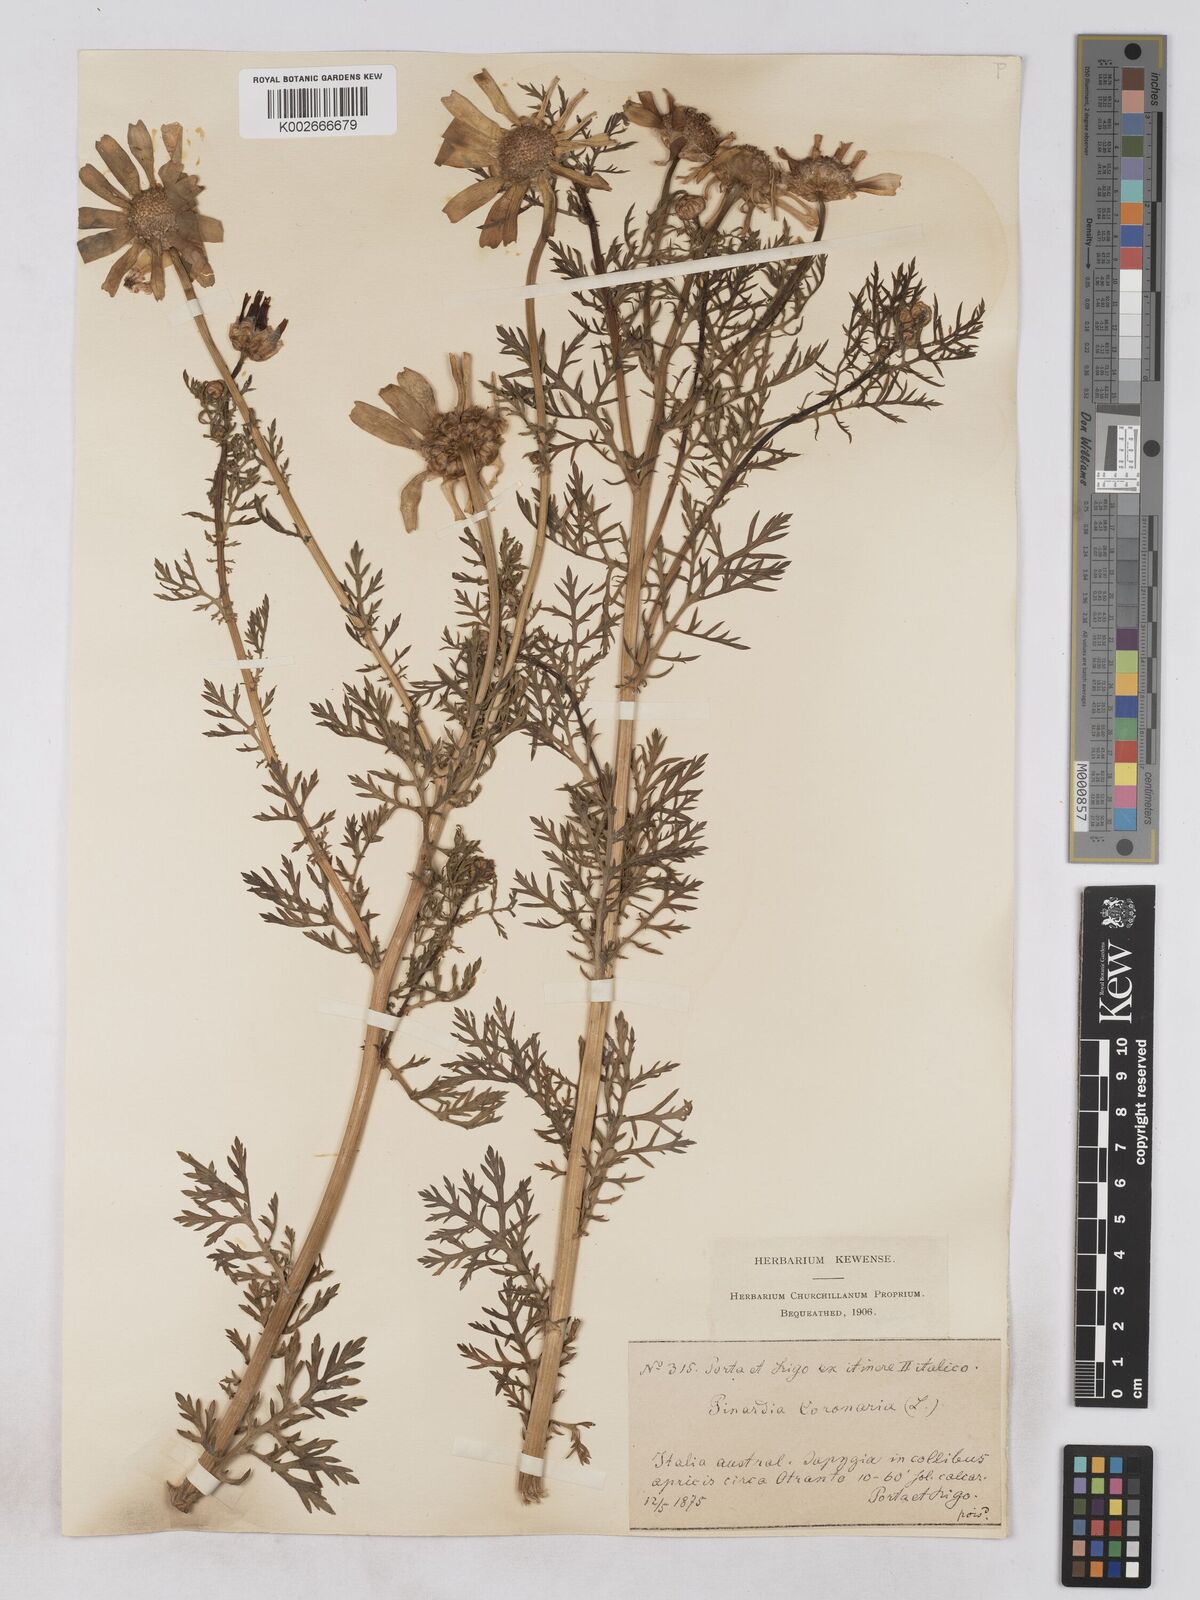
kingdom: Plantae
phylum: Tracheophyta
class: Magnoliopsida
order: Asterales
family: Asteraceae
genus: Glebionis
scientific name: Glebionis coronaria
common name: Crowndaisy
